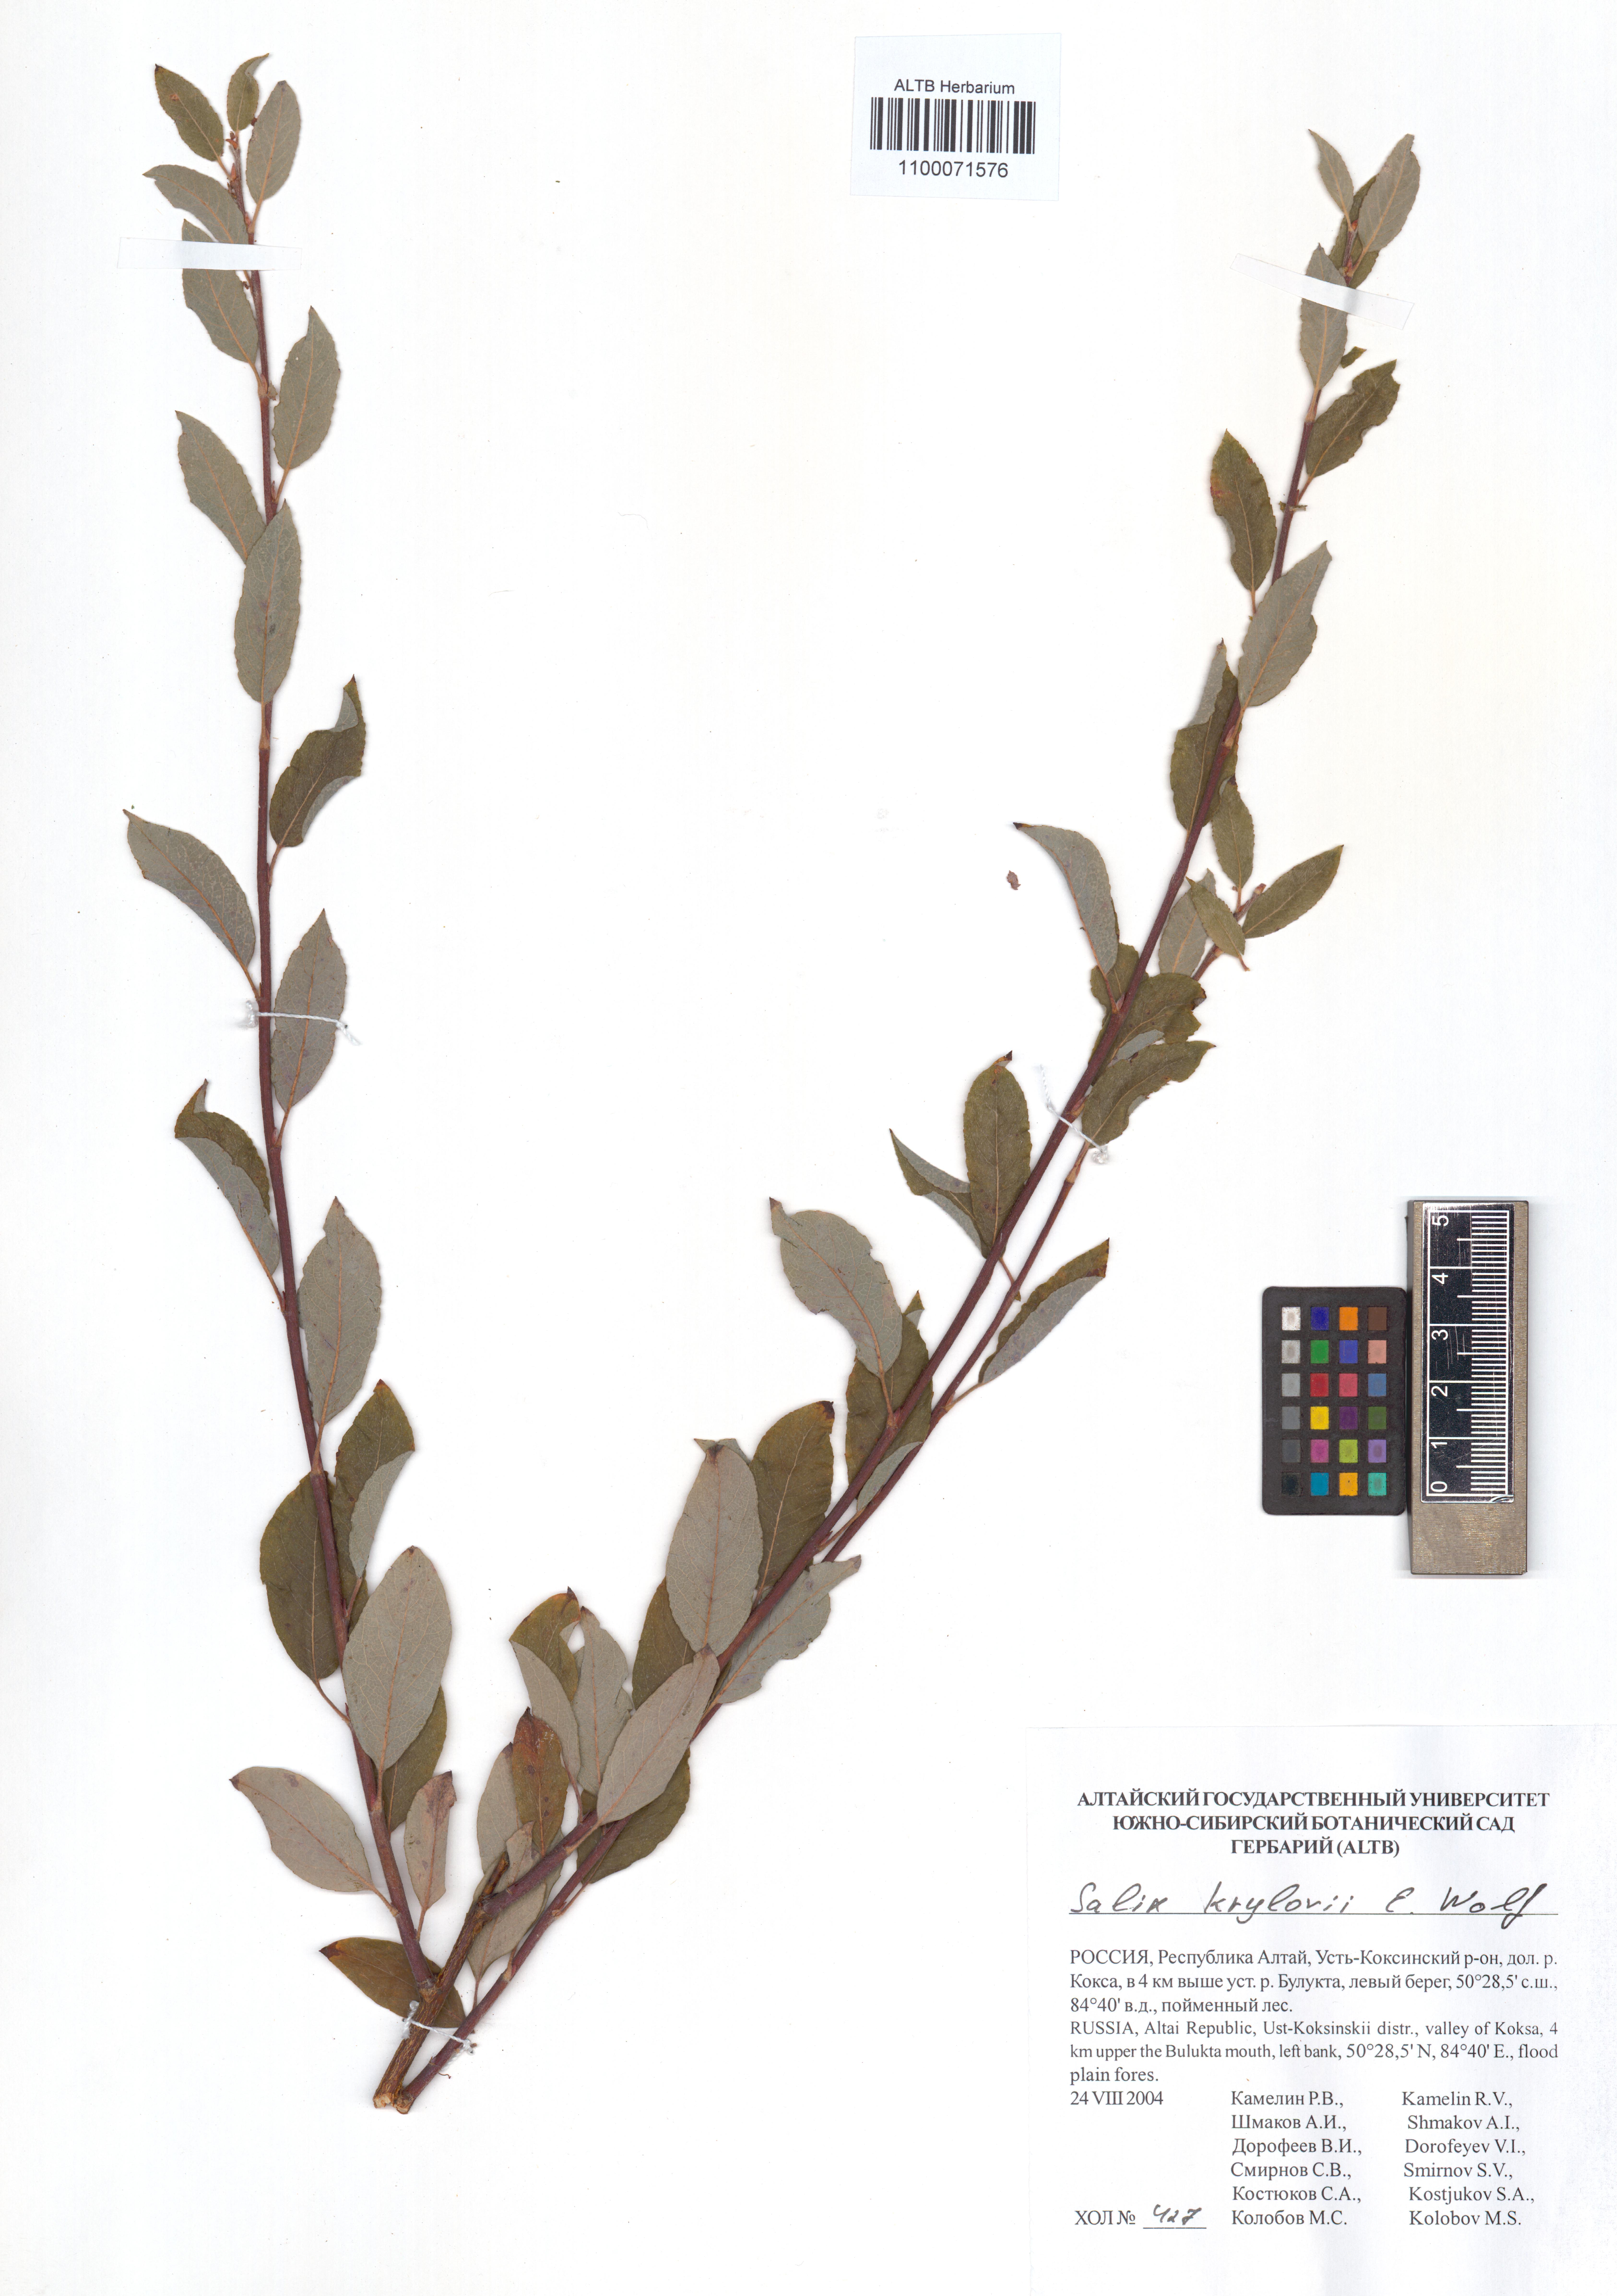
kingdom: Plantae
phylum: Tracheophyta
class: Magnoliopsida
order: Malpighiales
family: Salicaceae
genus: Salix
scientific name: Salix krylovii
